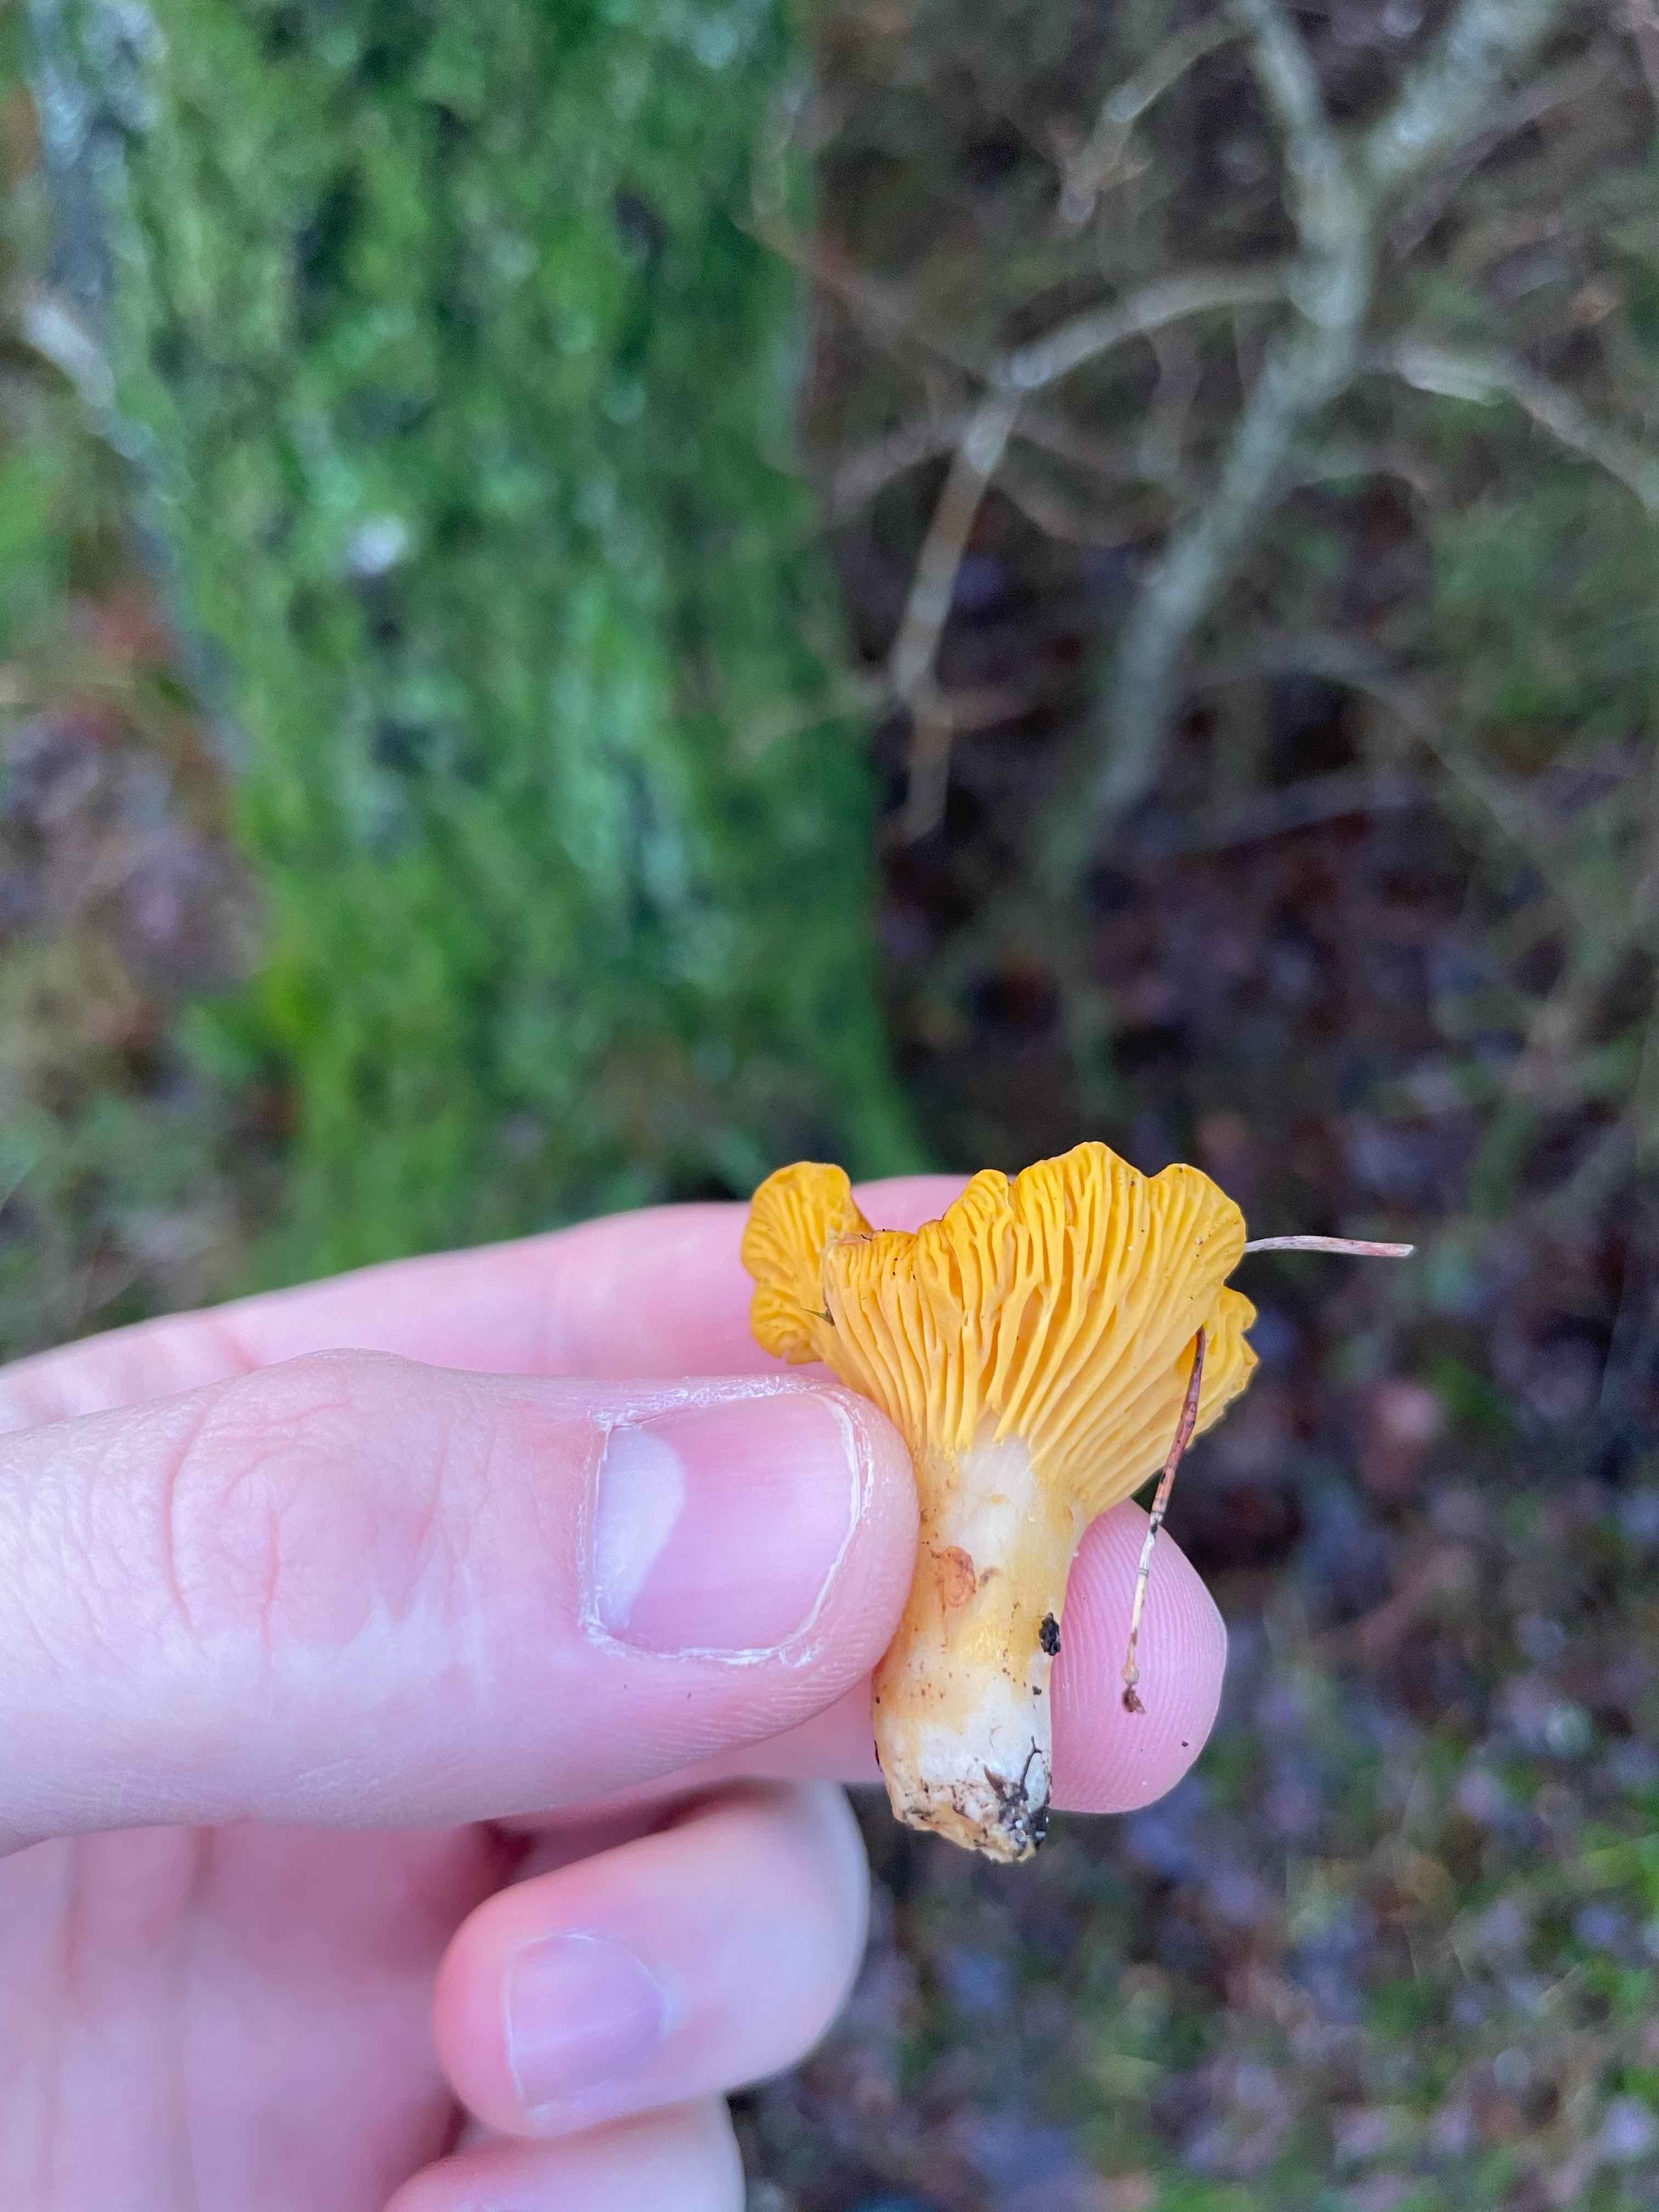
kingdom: Fungi
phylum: Basidiomycota
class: Agaricomycetes
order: Cantharellales
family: Hydnaceae
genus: Cantharellus
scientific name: Cantharellus cibarius
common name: almindelig kantarel
